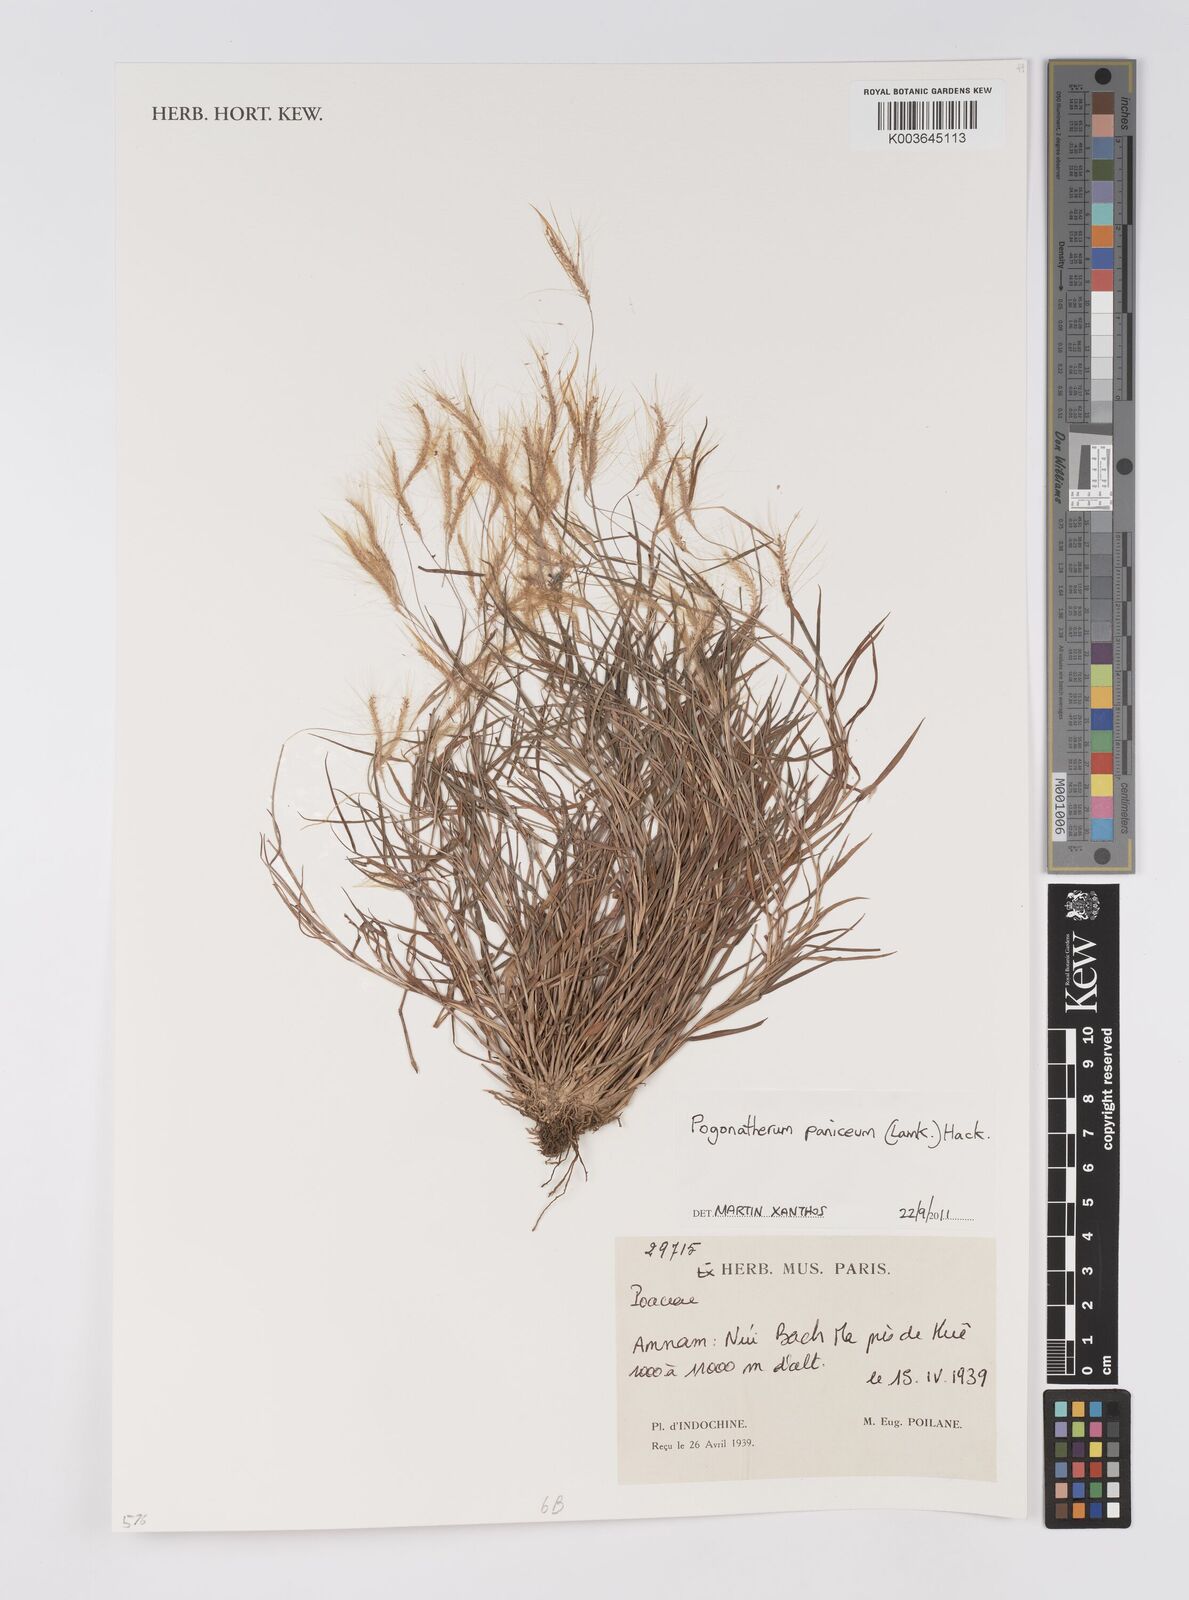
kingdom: Plantae
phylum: Tracheophyta
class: Liliopsida
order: Poales
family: Poaceae
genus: Pogonatherum
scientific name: Pogonatherum paniceum
